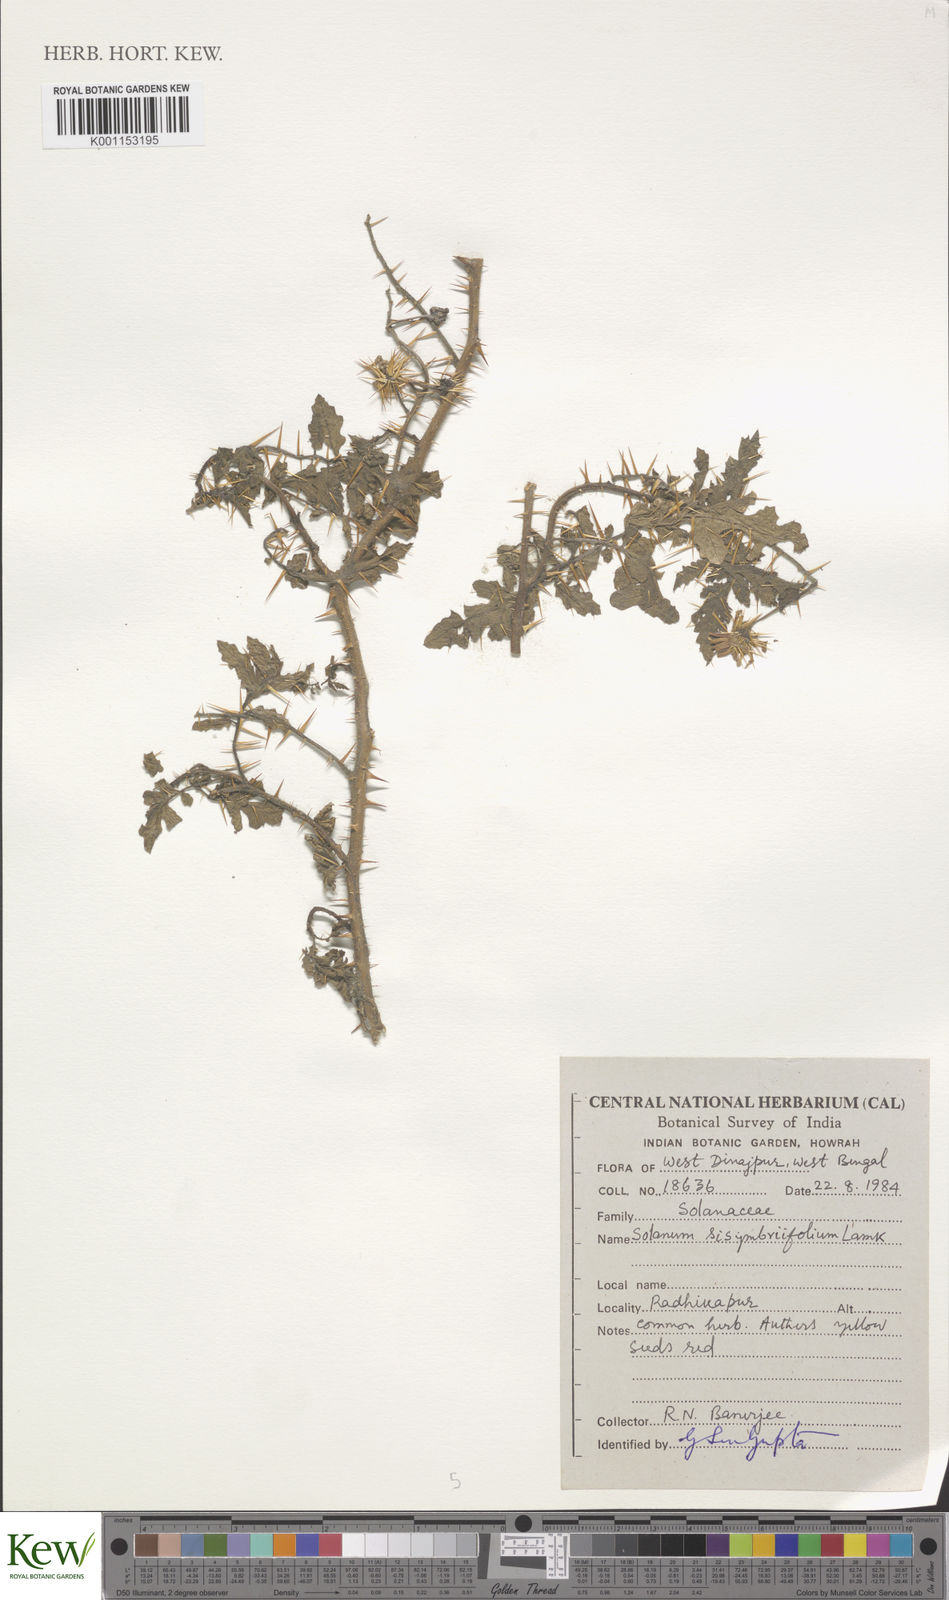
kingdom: Plantae
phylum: Tracheophyta
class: Magnoliopsida
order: Solanales
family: Solanaceae
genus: Solanum
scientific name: Solanum sisymbriifolium
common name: Red buffalo-bur
